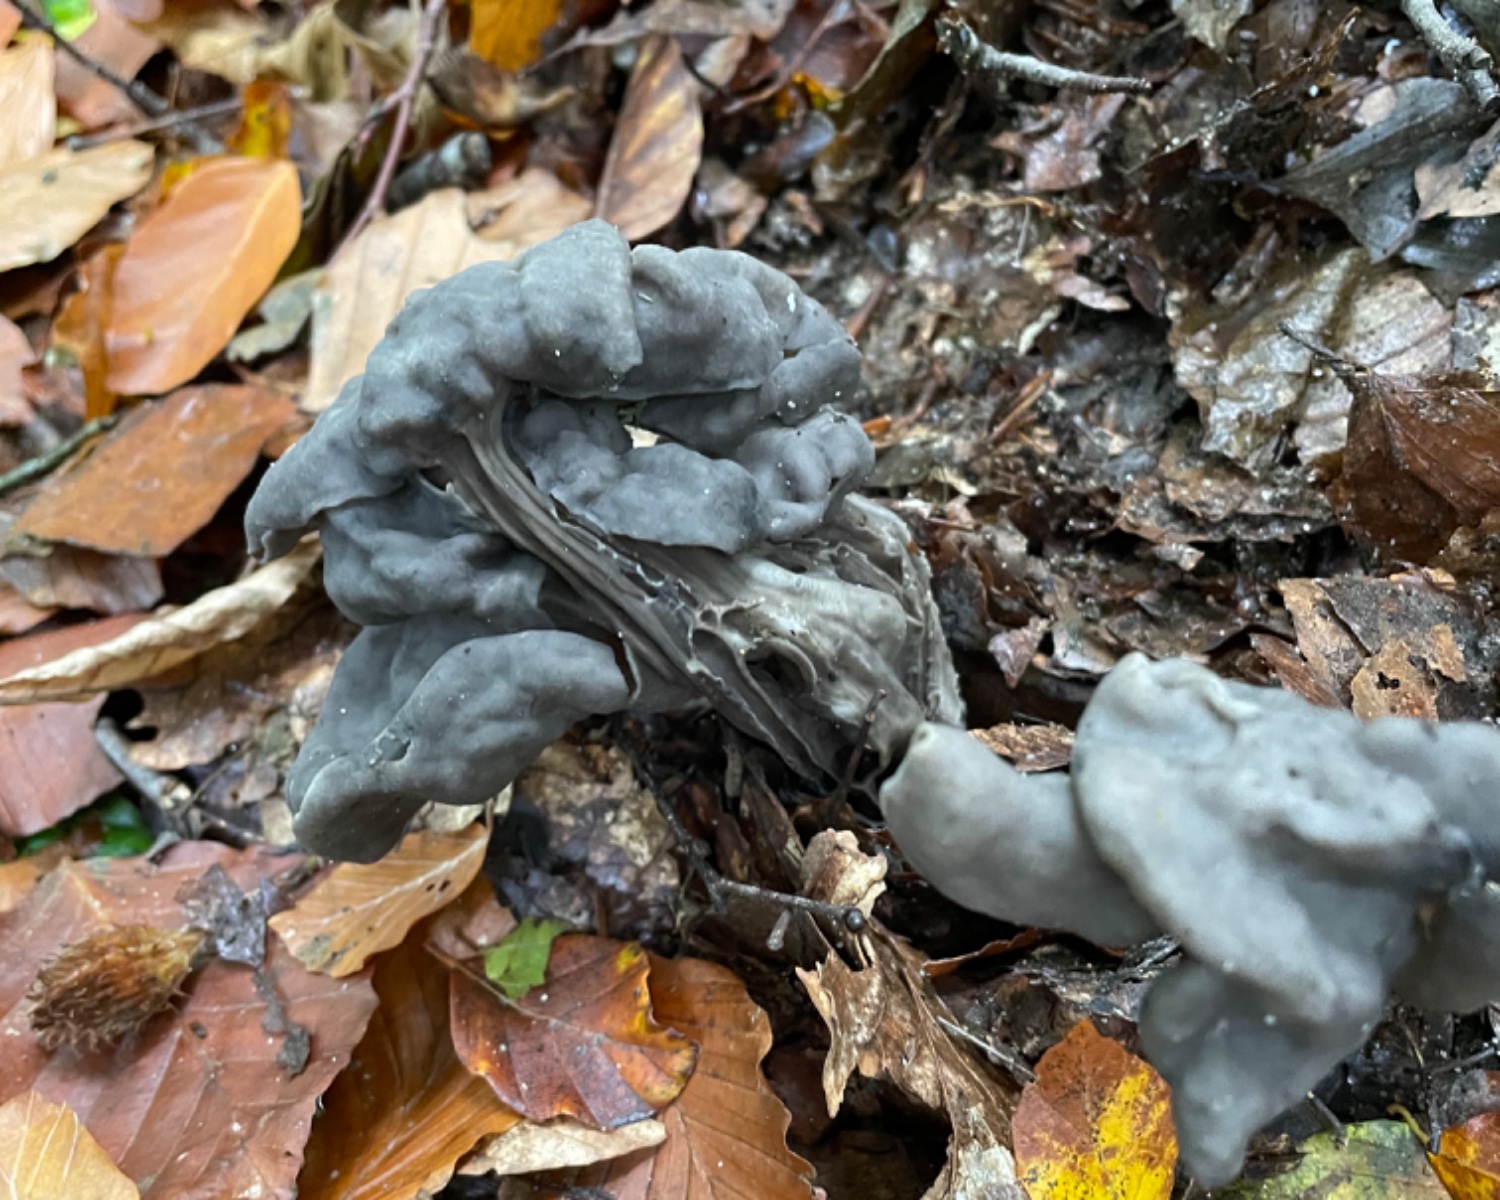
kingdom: Fungi
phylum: Ascomycota
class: Pezizomycetes
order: Pezizales
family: Helvellaceae
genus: Helvella
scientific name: Helvella lacunosa
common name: grubet foldhat
